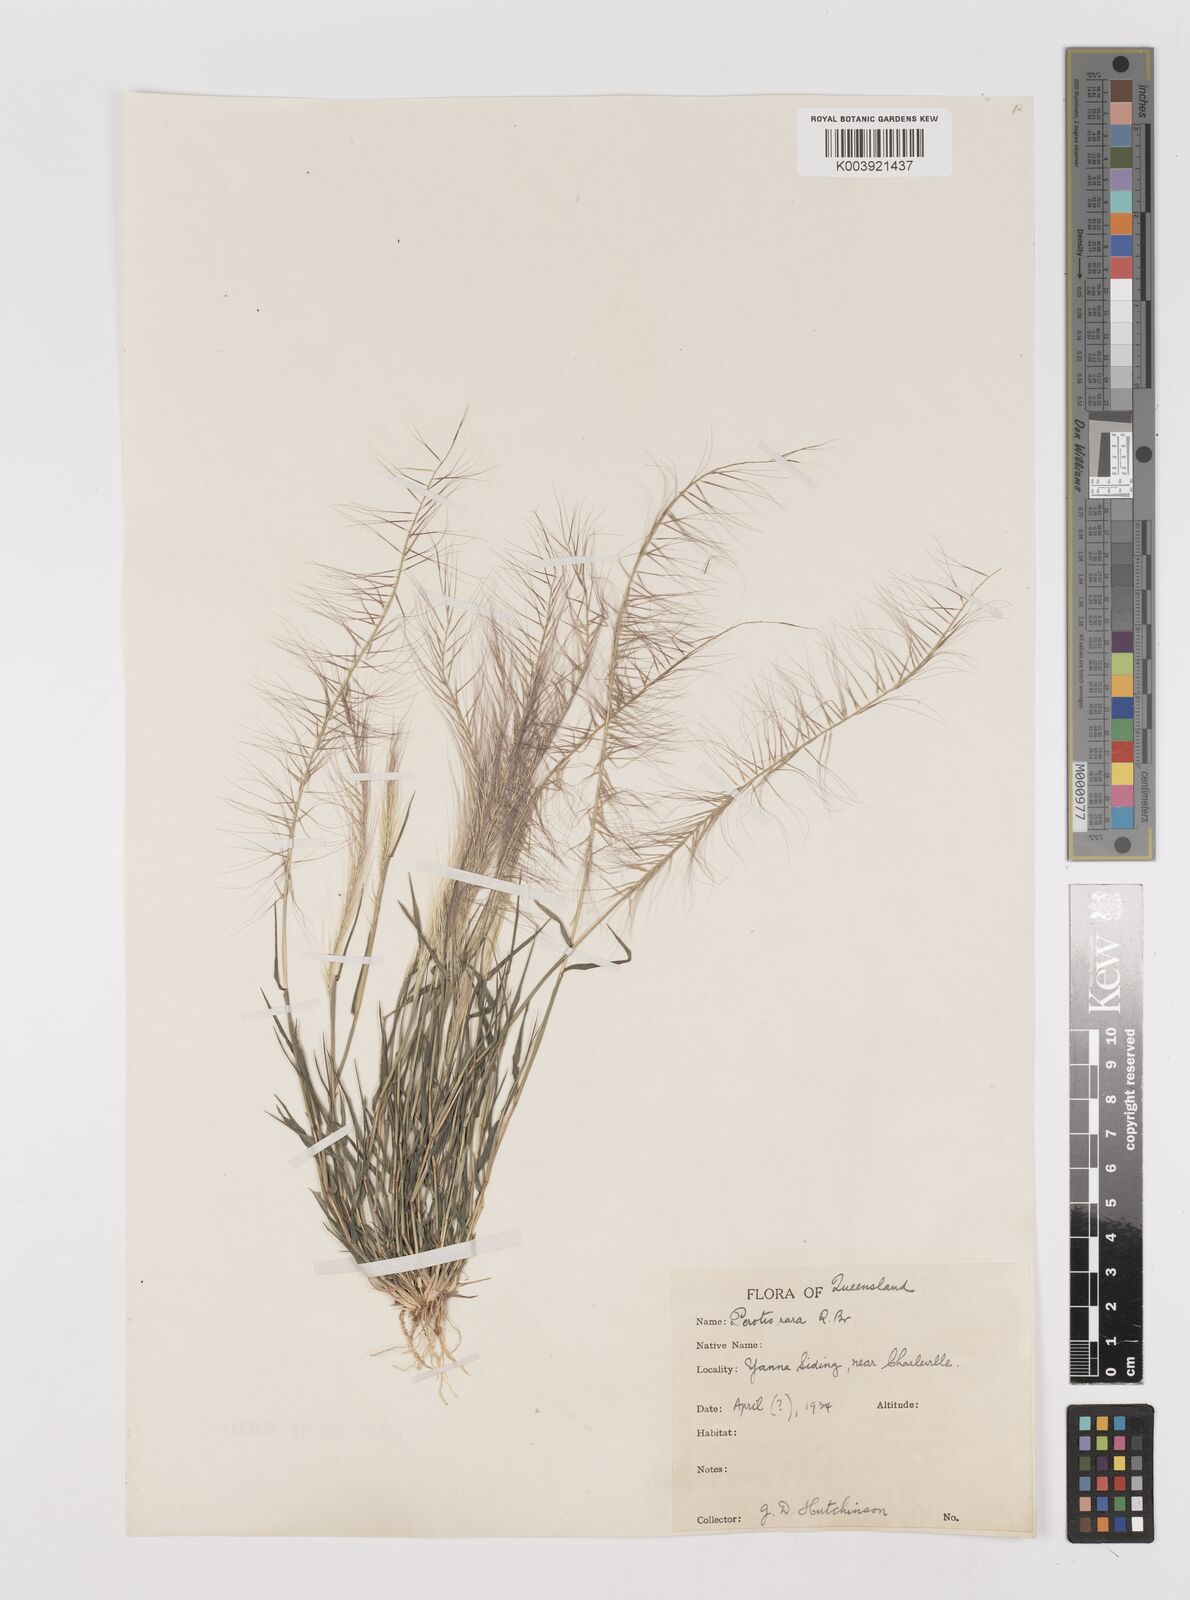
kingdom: Plantae
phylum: Tracheophyta
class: Liliopsida
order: Poales
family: Poaceae
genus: Perotis
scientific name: Perotis rara
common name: Comet grass
